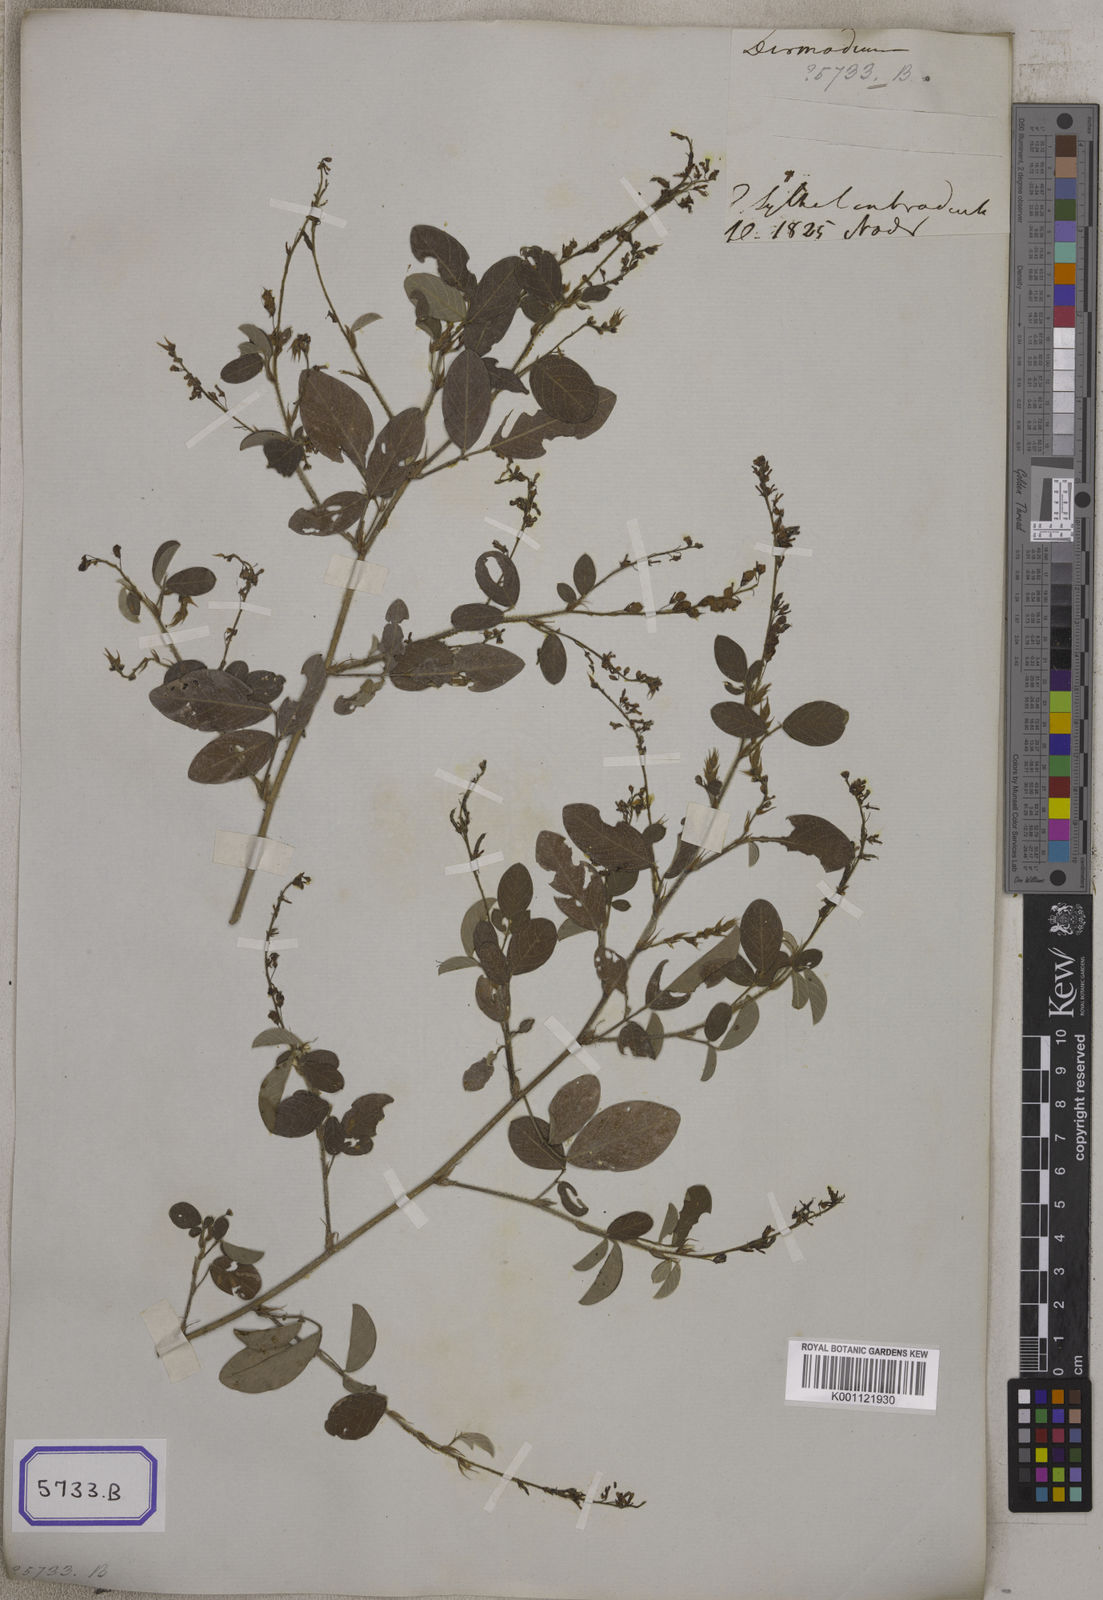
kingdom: Plantae
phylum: Tracheophyta
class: Magnoliopsida
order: Fabales
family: Fabaceae
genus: Grona
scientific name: Grona heterocarpos
